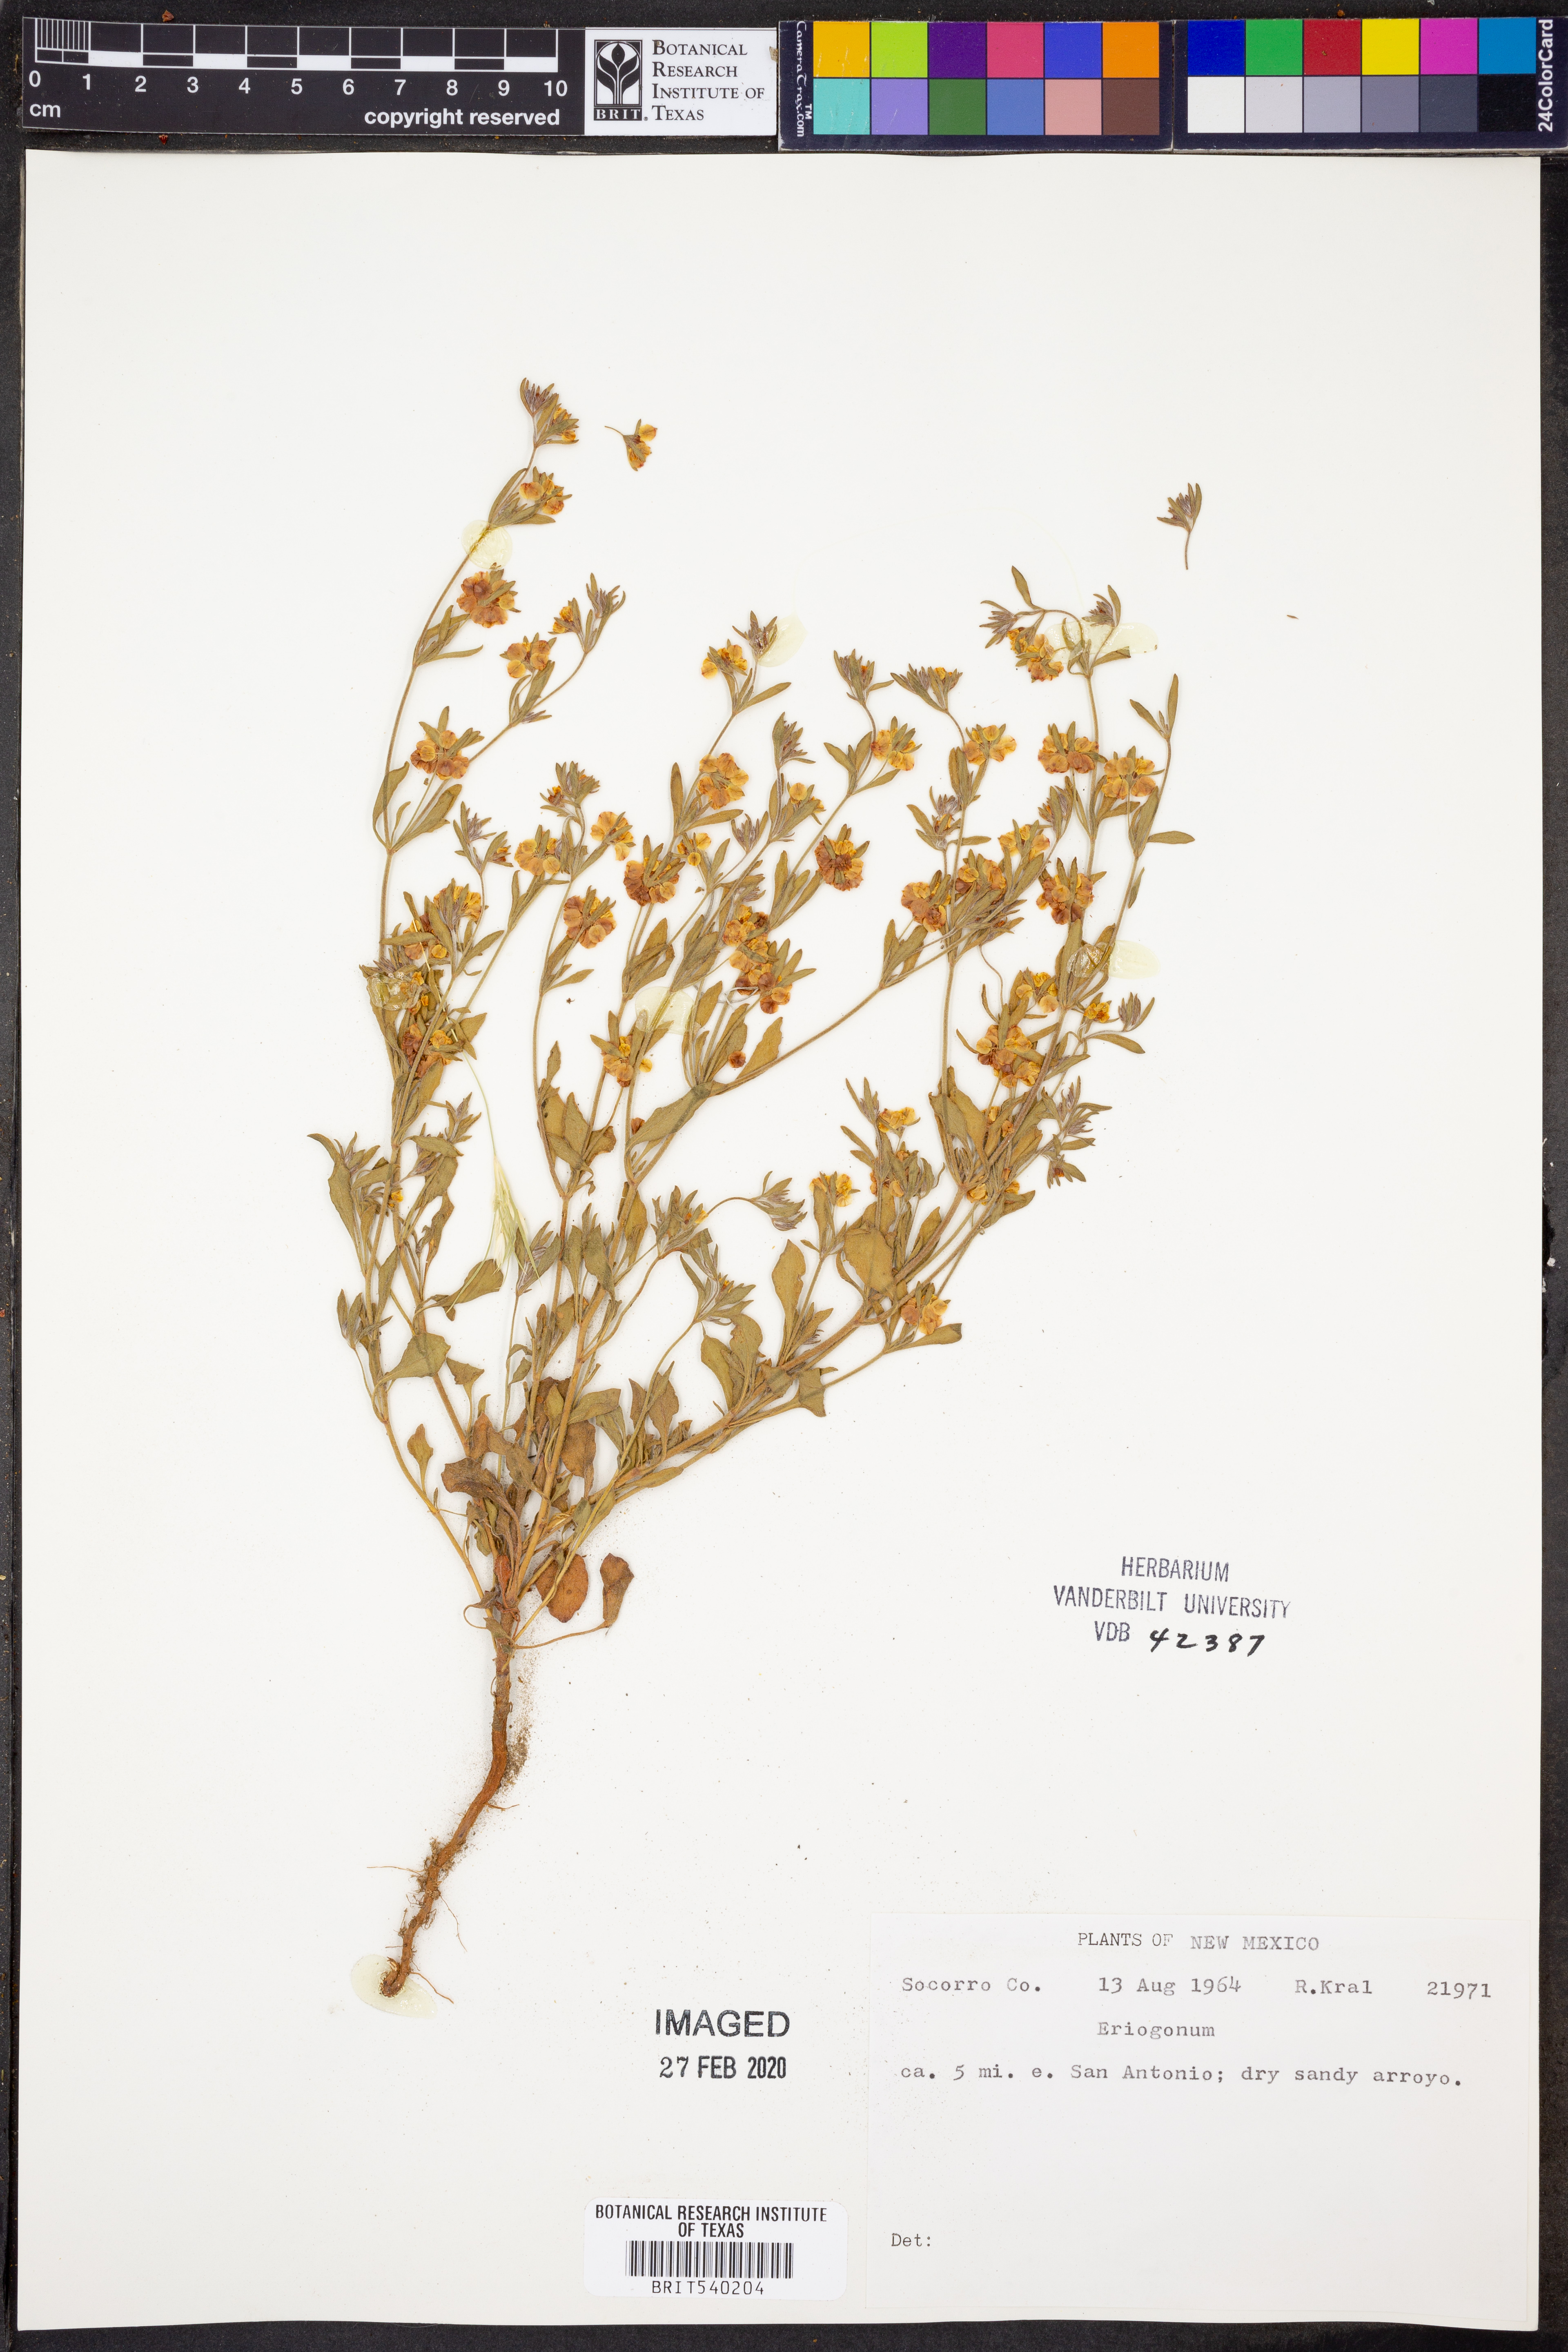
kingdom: Plantae
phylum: Tracheophyta
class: Magnoliopsida
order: Caryophyllales
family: Polygonaceae
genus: Eriogonum
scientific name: Eriogonum
